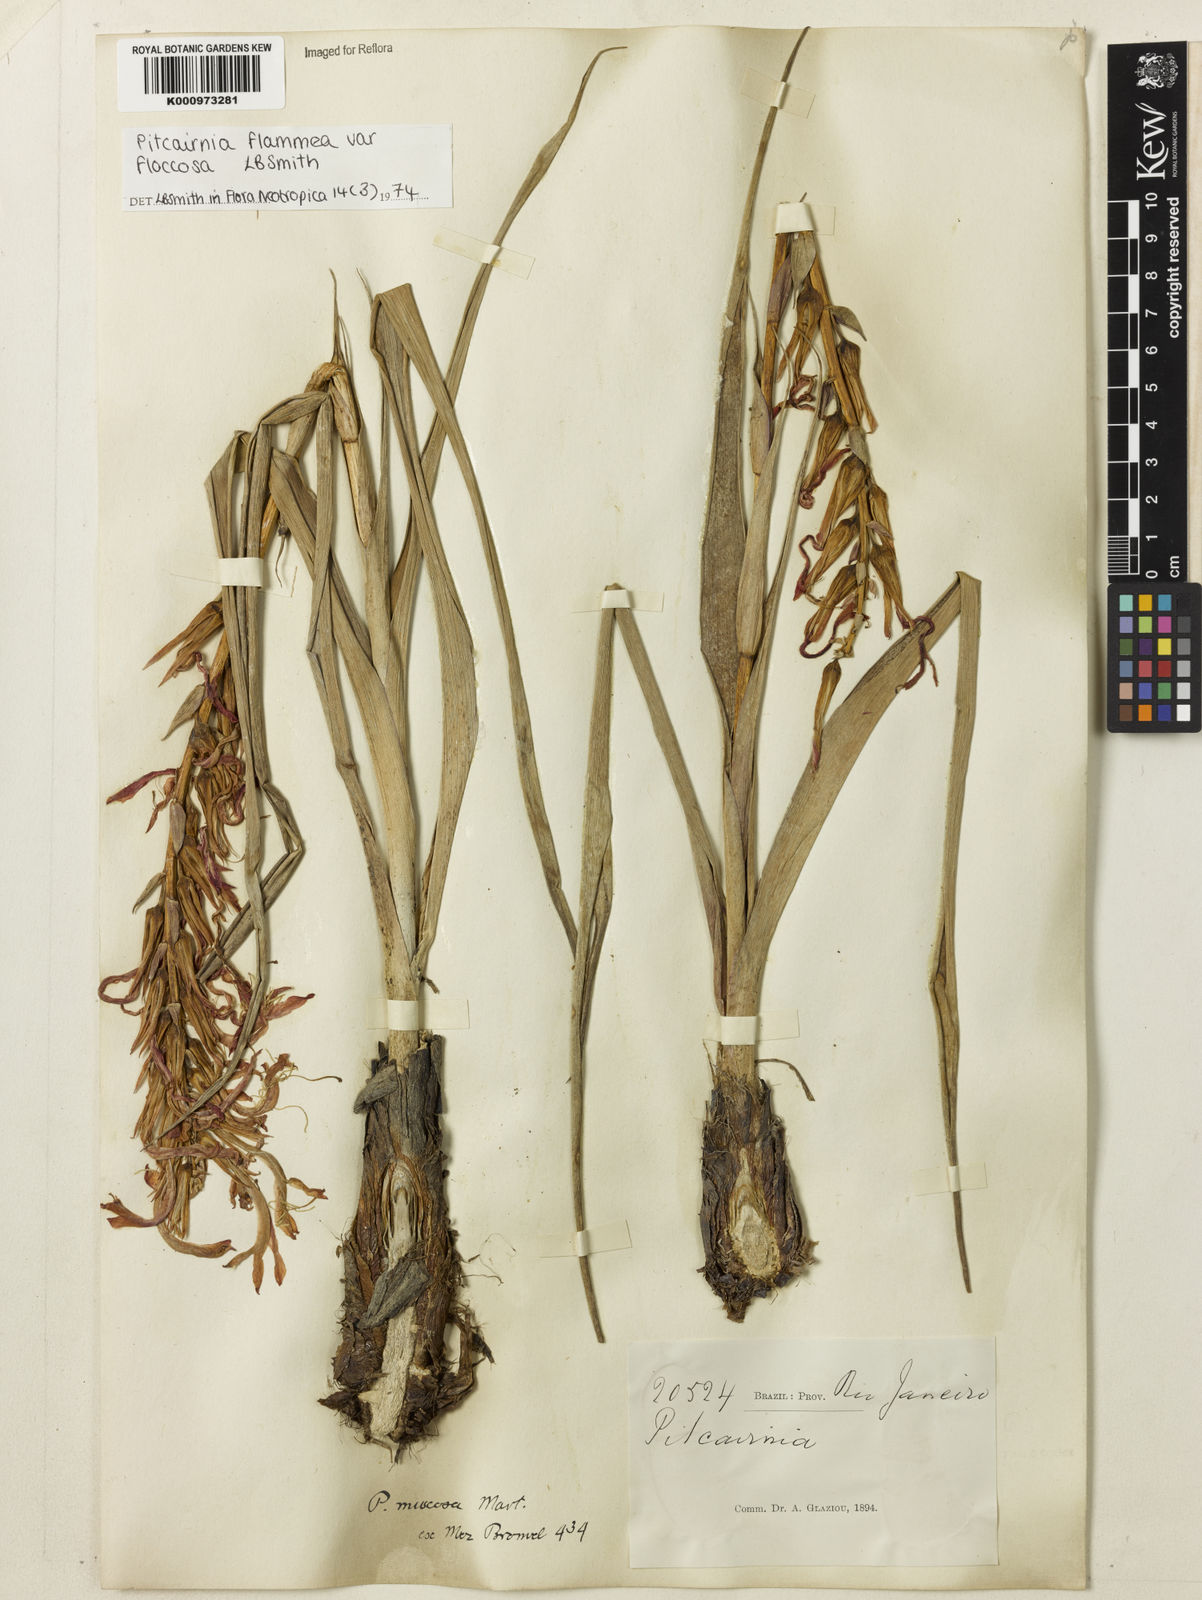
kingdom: Plantae
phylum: Tracheophyta
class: Liliopsida
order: Poales
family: Bromeliaceae
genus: Pitcairnia
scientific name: Pitcairnia flammea
